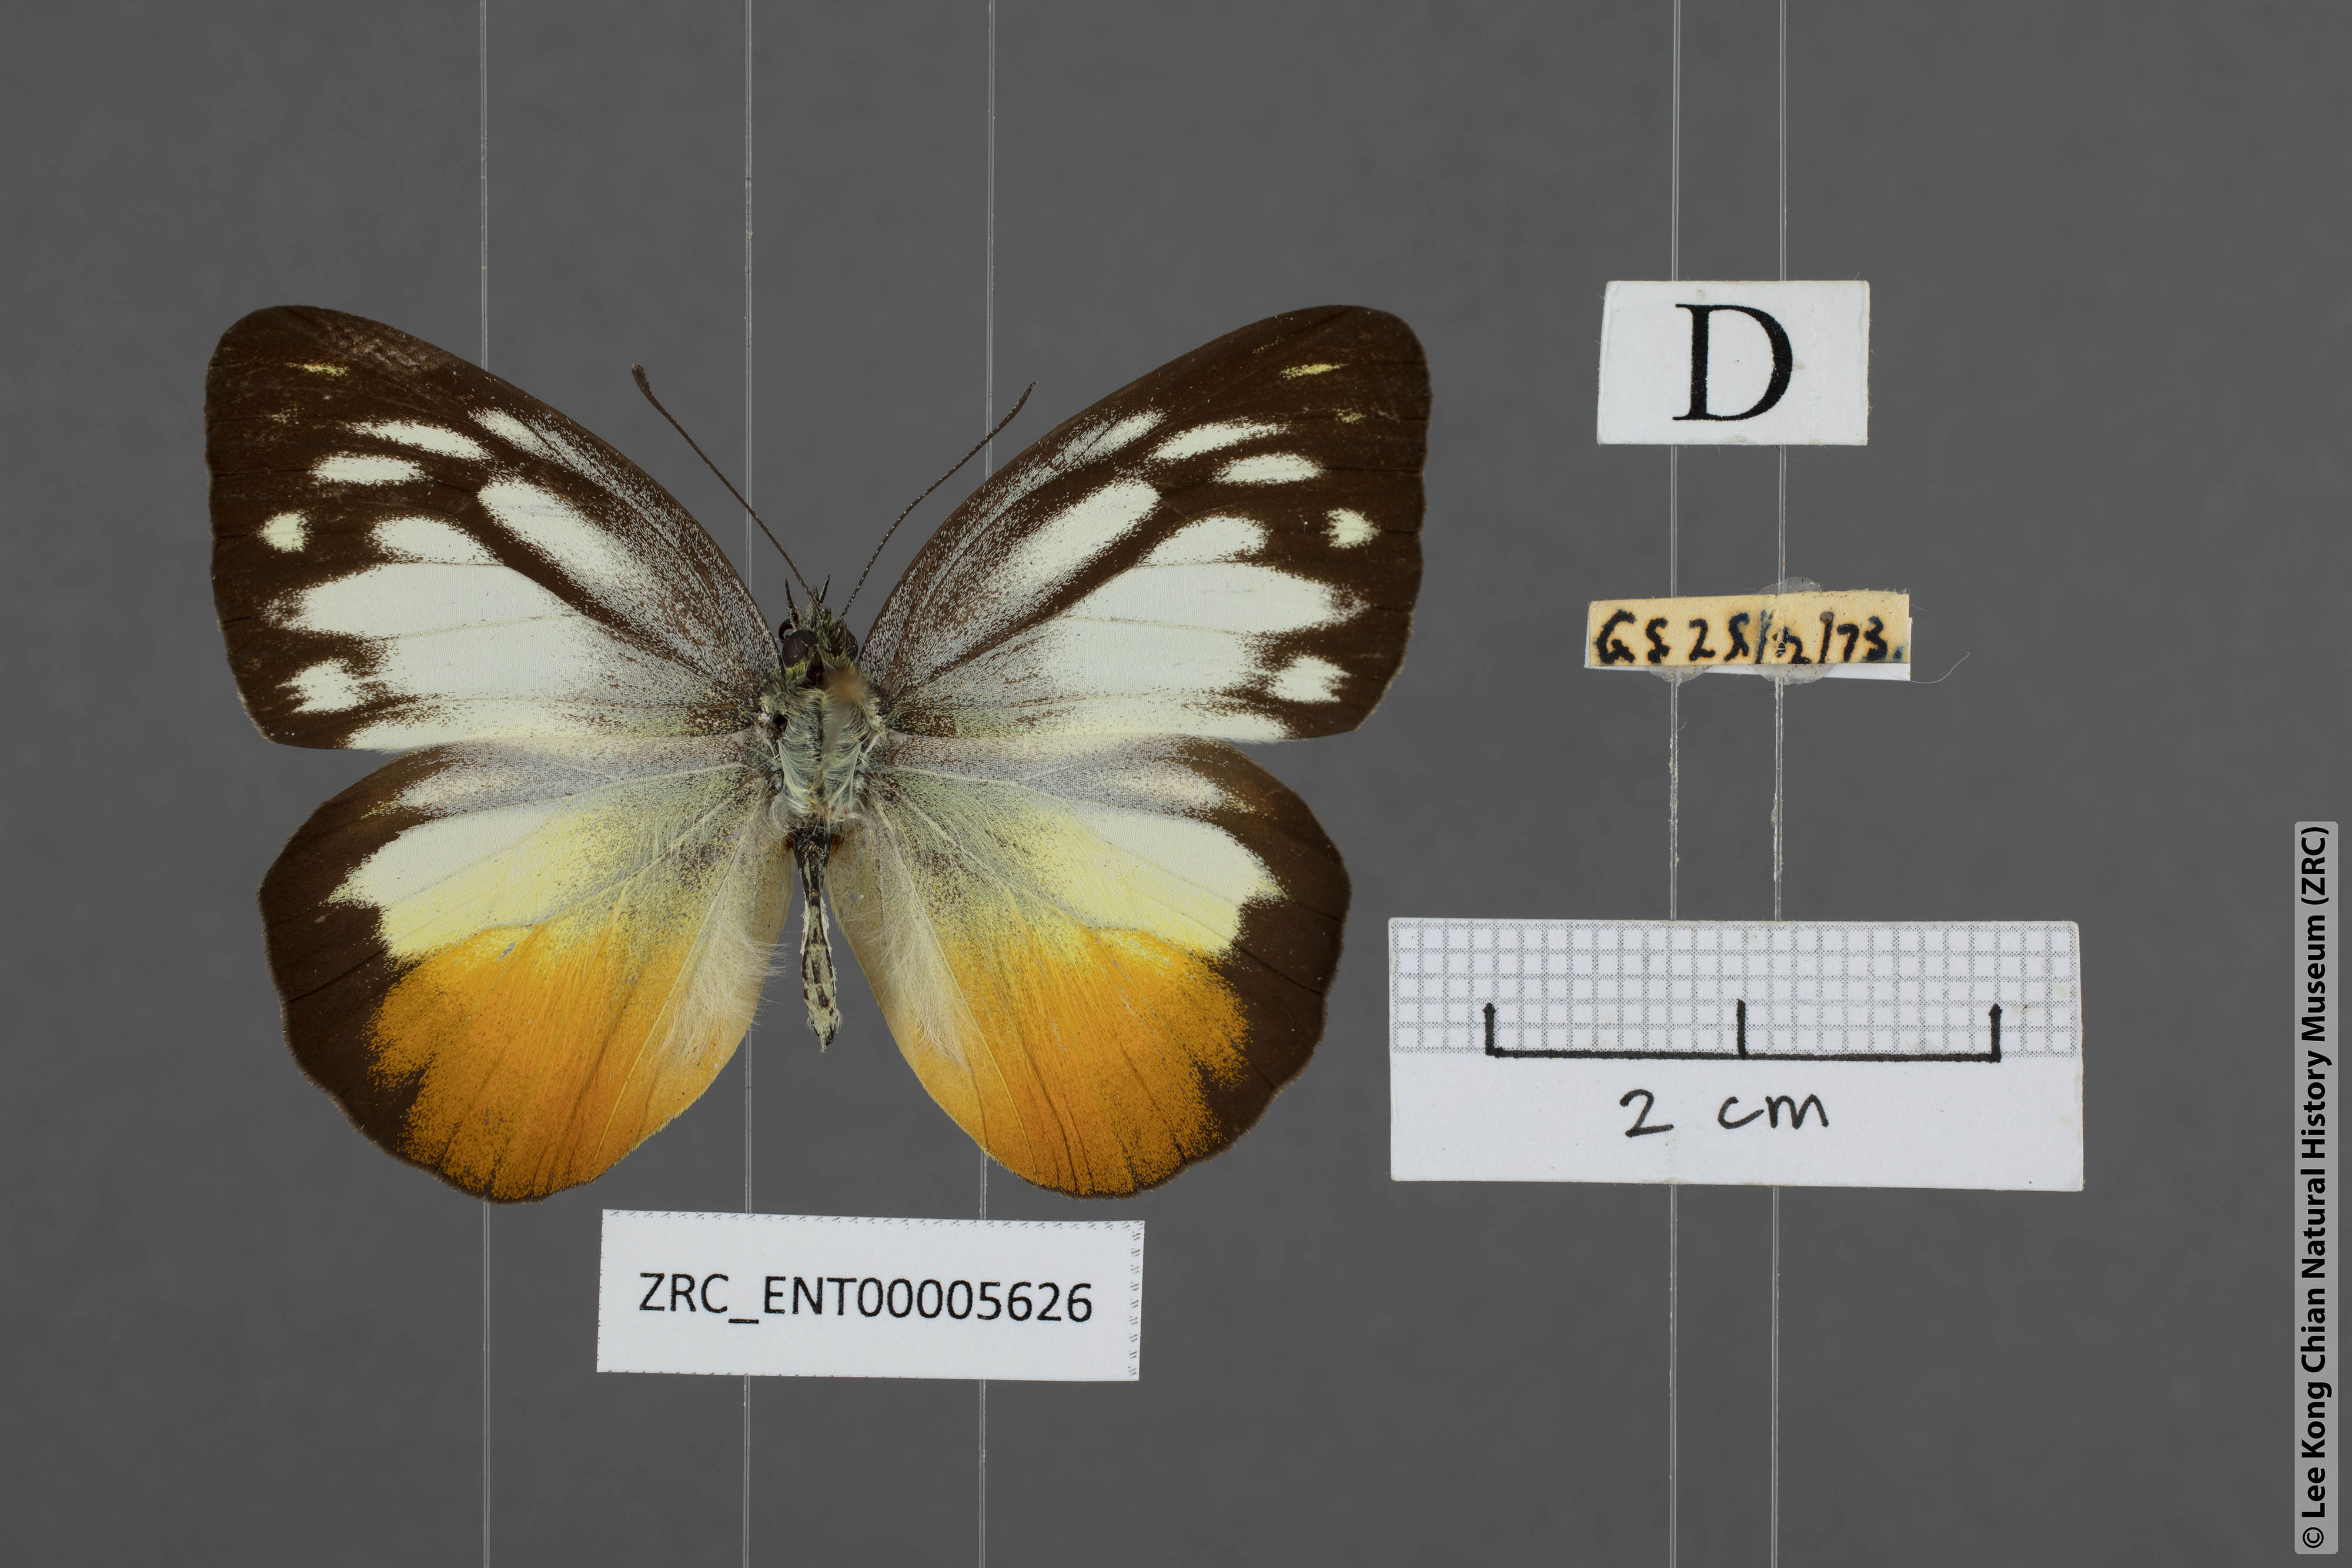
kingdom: Animalia
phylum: Arthropoda
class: Insecta
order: Lepidoptera
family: Pieridae
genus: Cepora
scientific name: Cepora iudith
